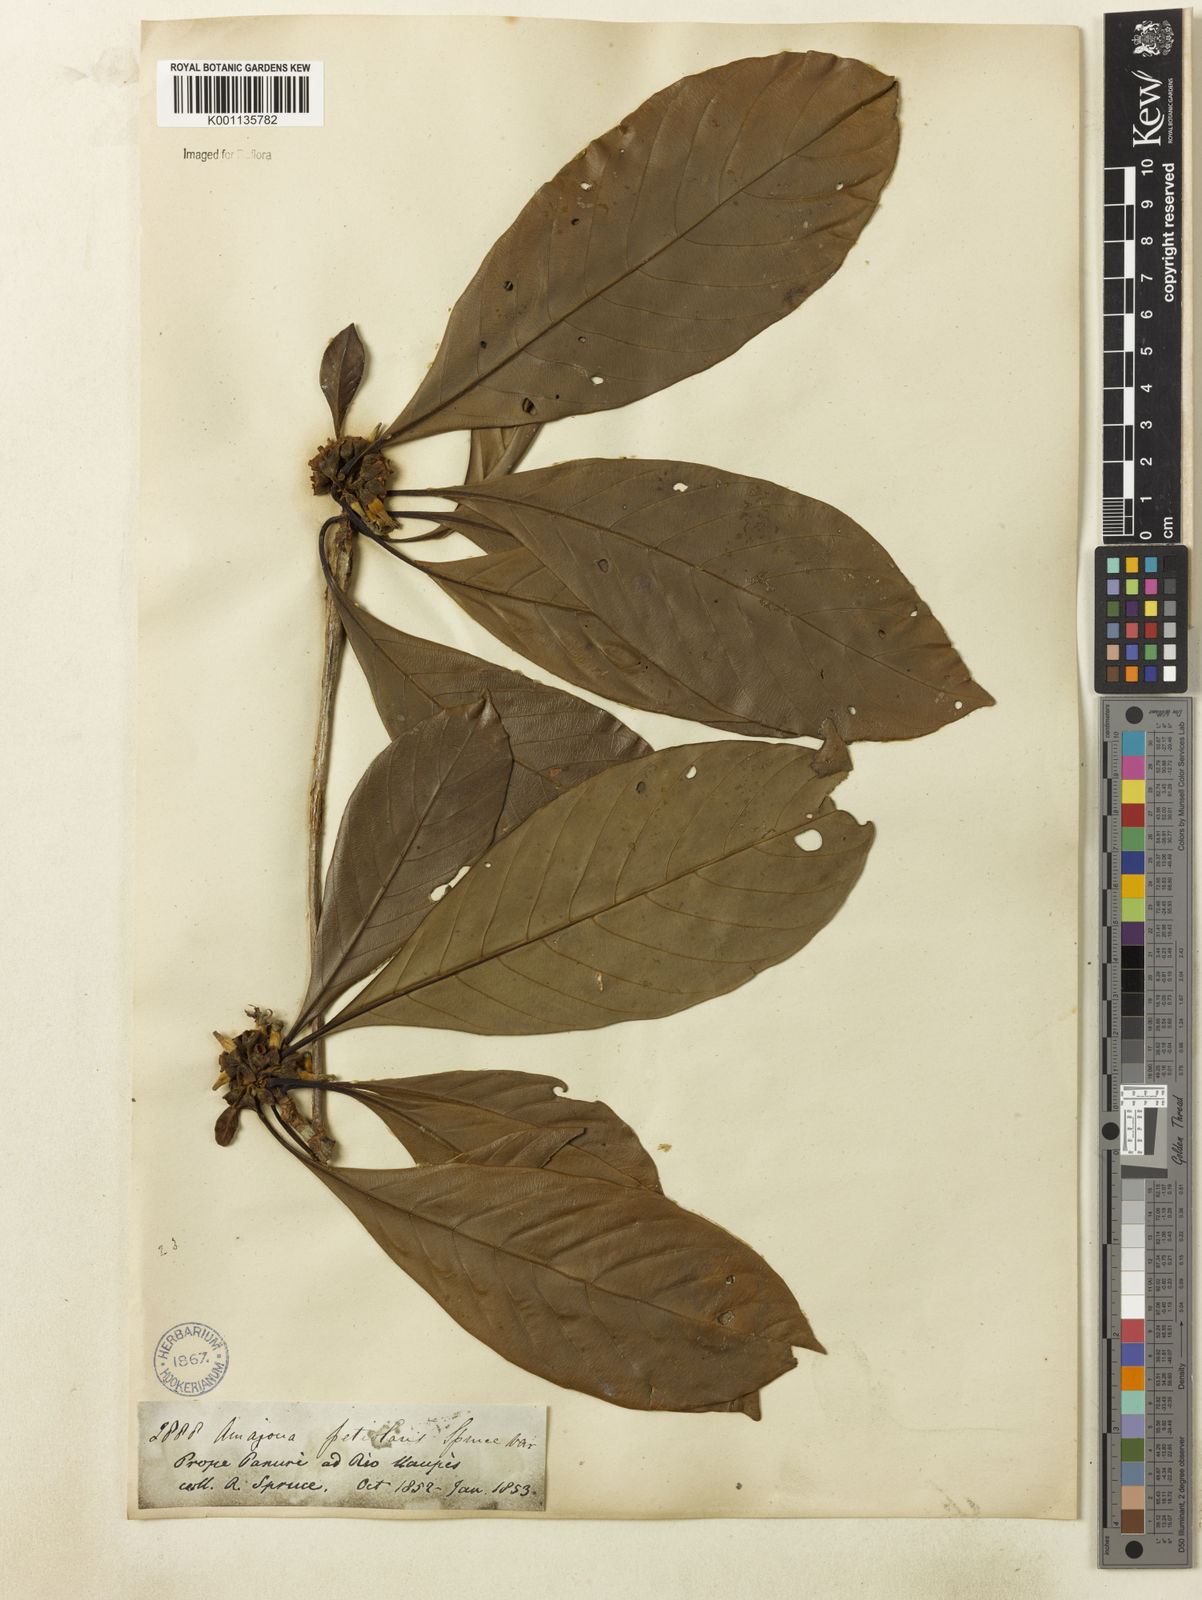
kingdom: Plantae
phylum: Tracheophyta
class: Magnoliopsida
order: Gentianales
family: Rubiaceae
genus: Duroia
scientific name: Duroia petiolaris
